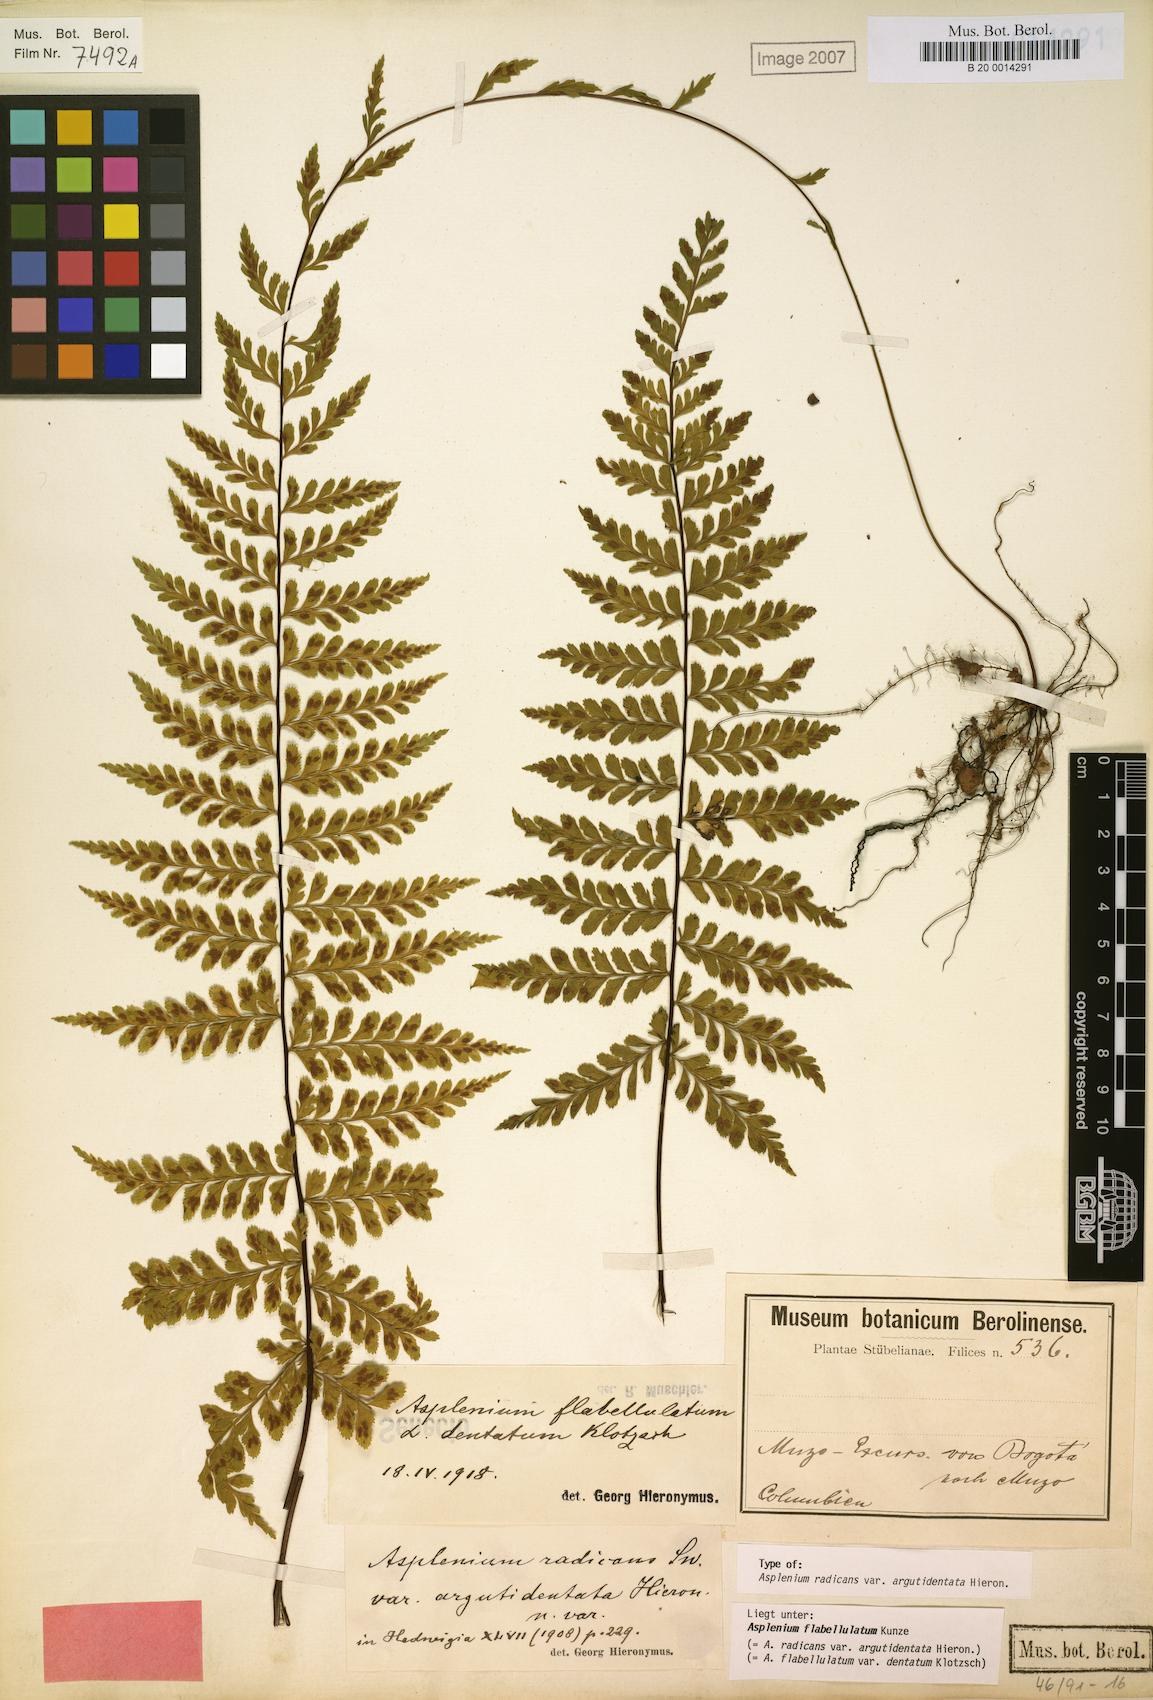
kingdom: Plantae
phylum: Tracheophyta
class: Polypodiopsida
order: Polypodiales
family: Aspleniaceae
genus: Asplenium
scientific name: Asplenium radicans
